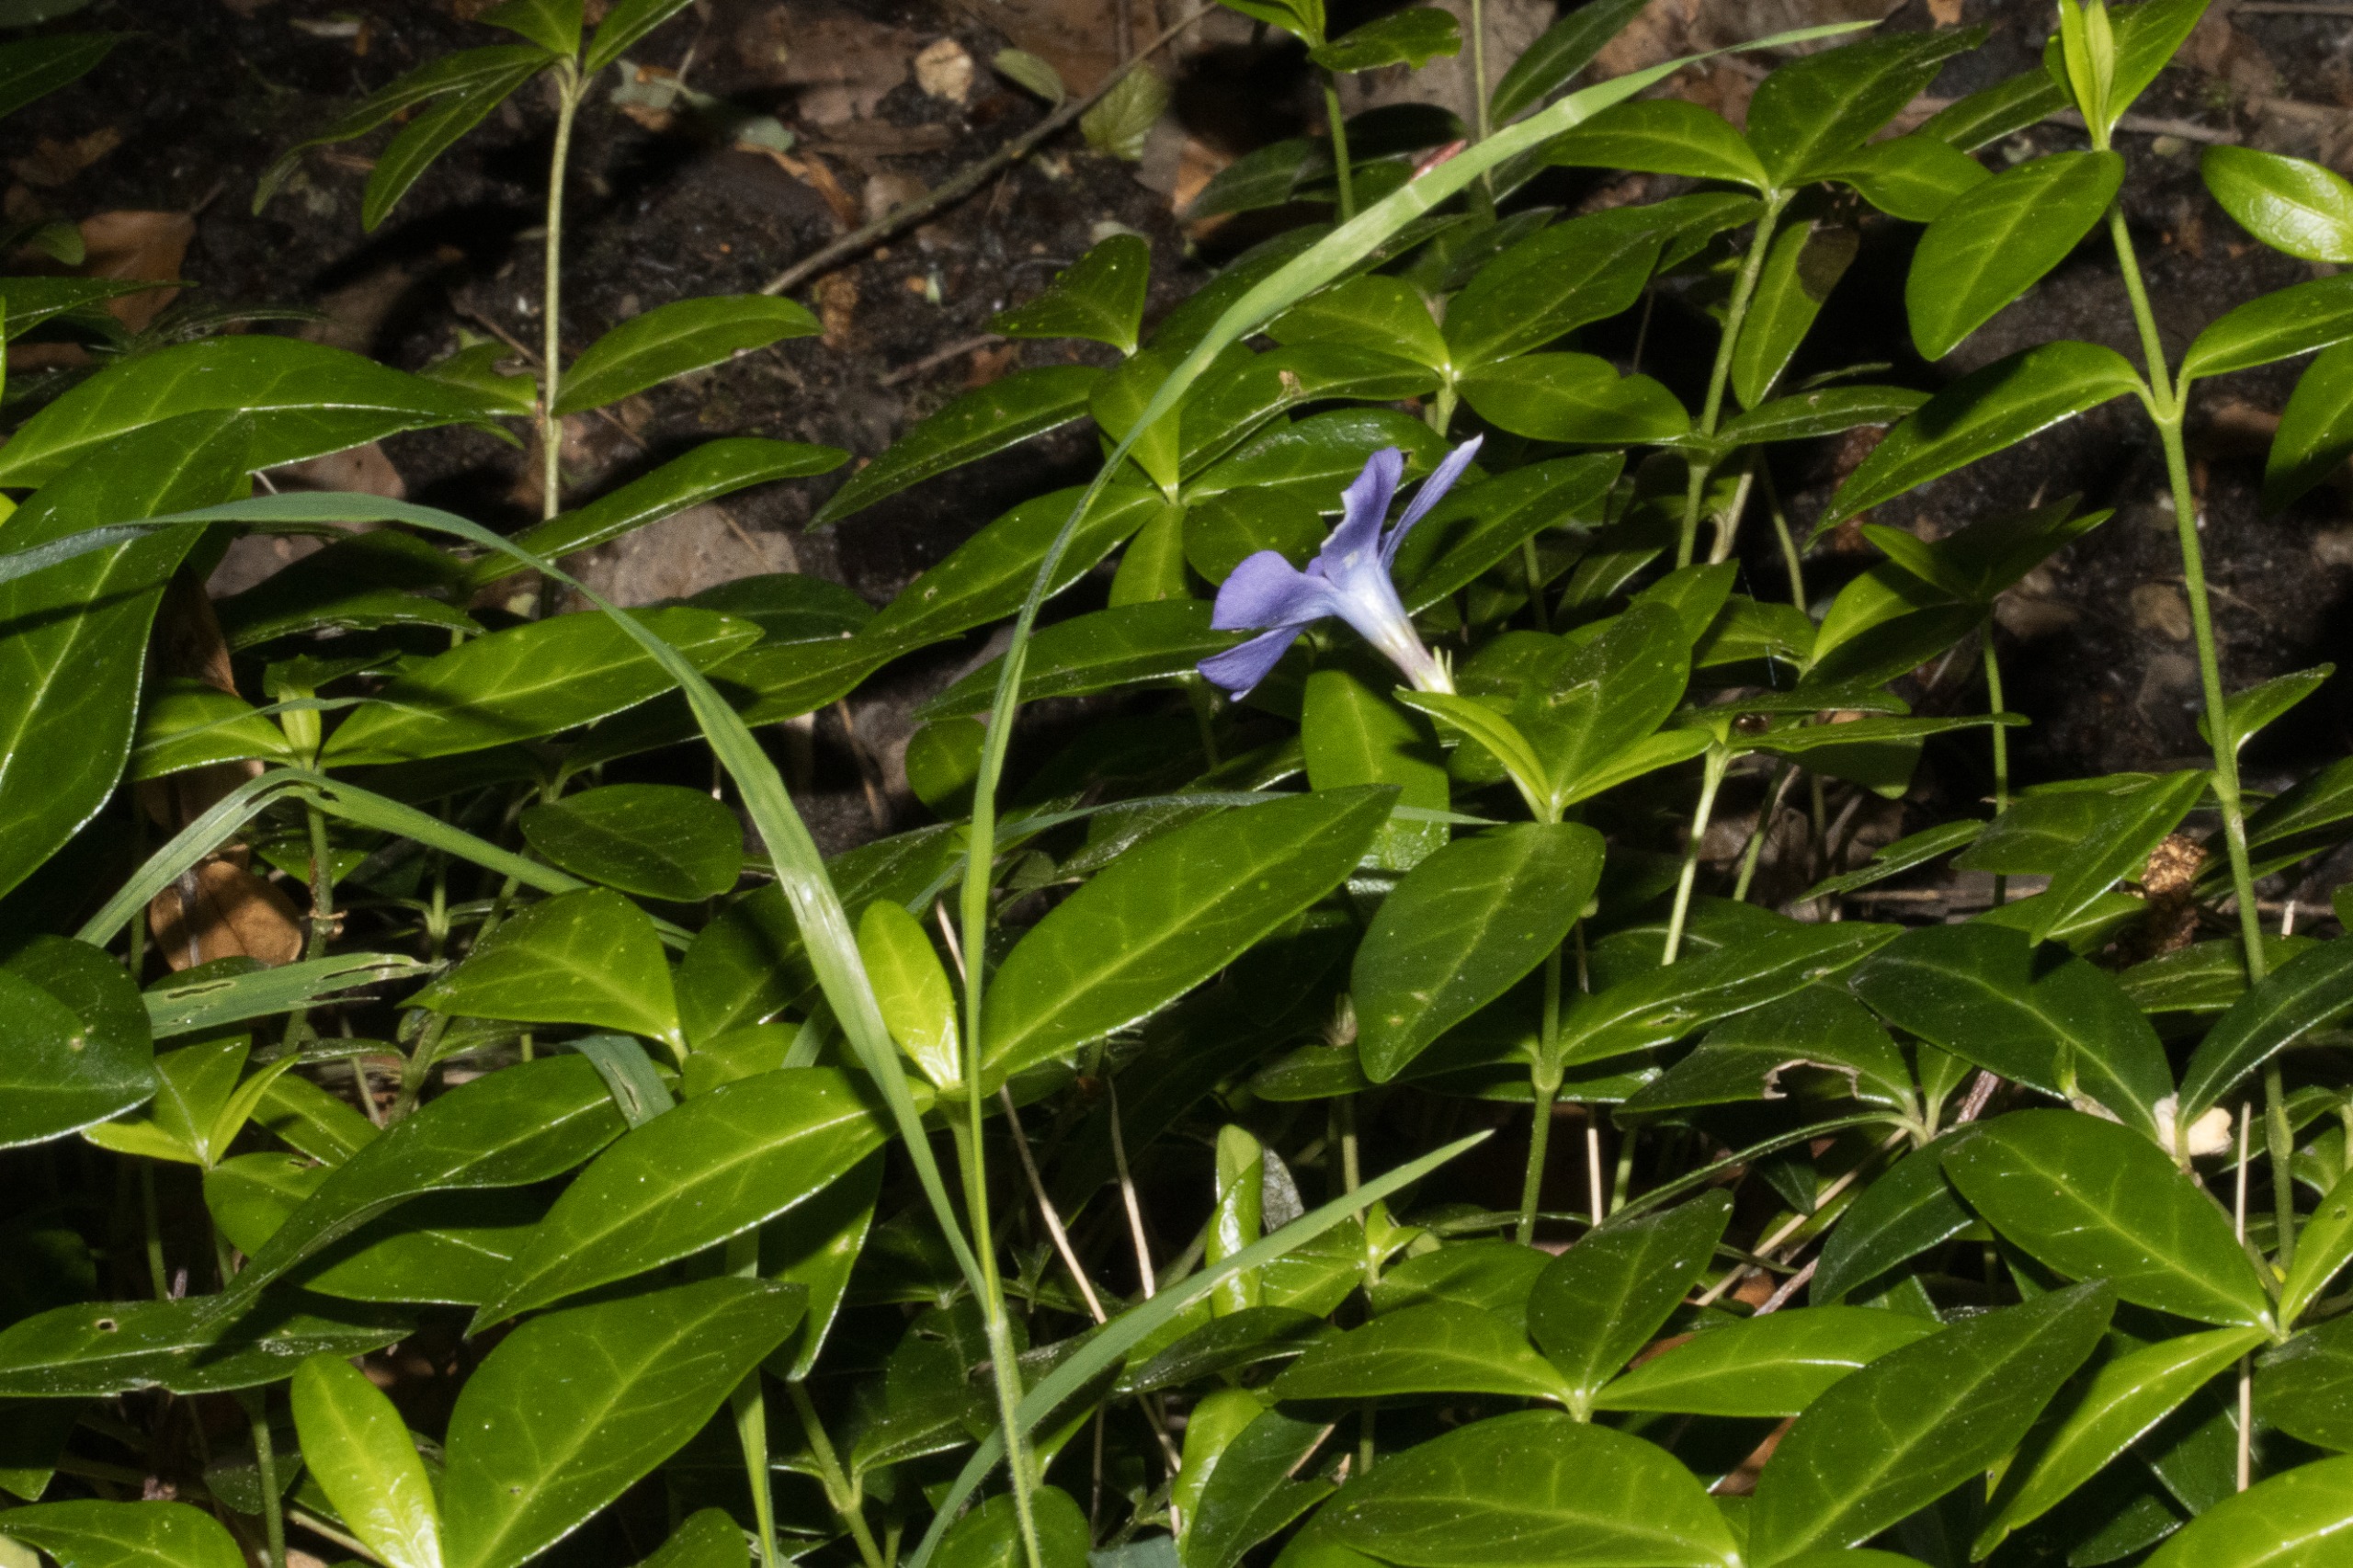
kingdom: Plantae
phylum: Tracheophyta
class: Magnoliopsida
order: Gentianales
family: Apocynaceae
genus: Vinca
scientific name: Vinca minor
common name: Liden singrøn
